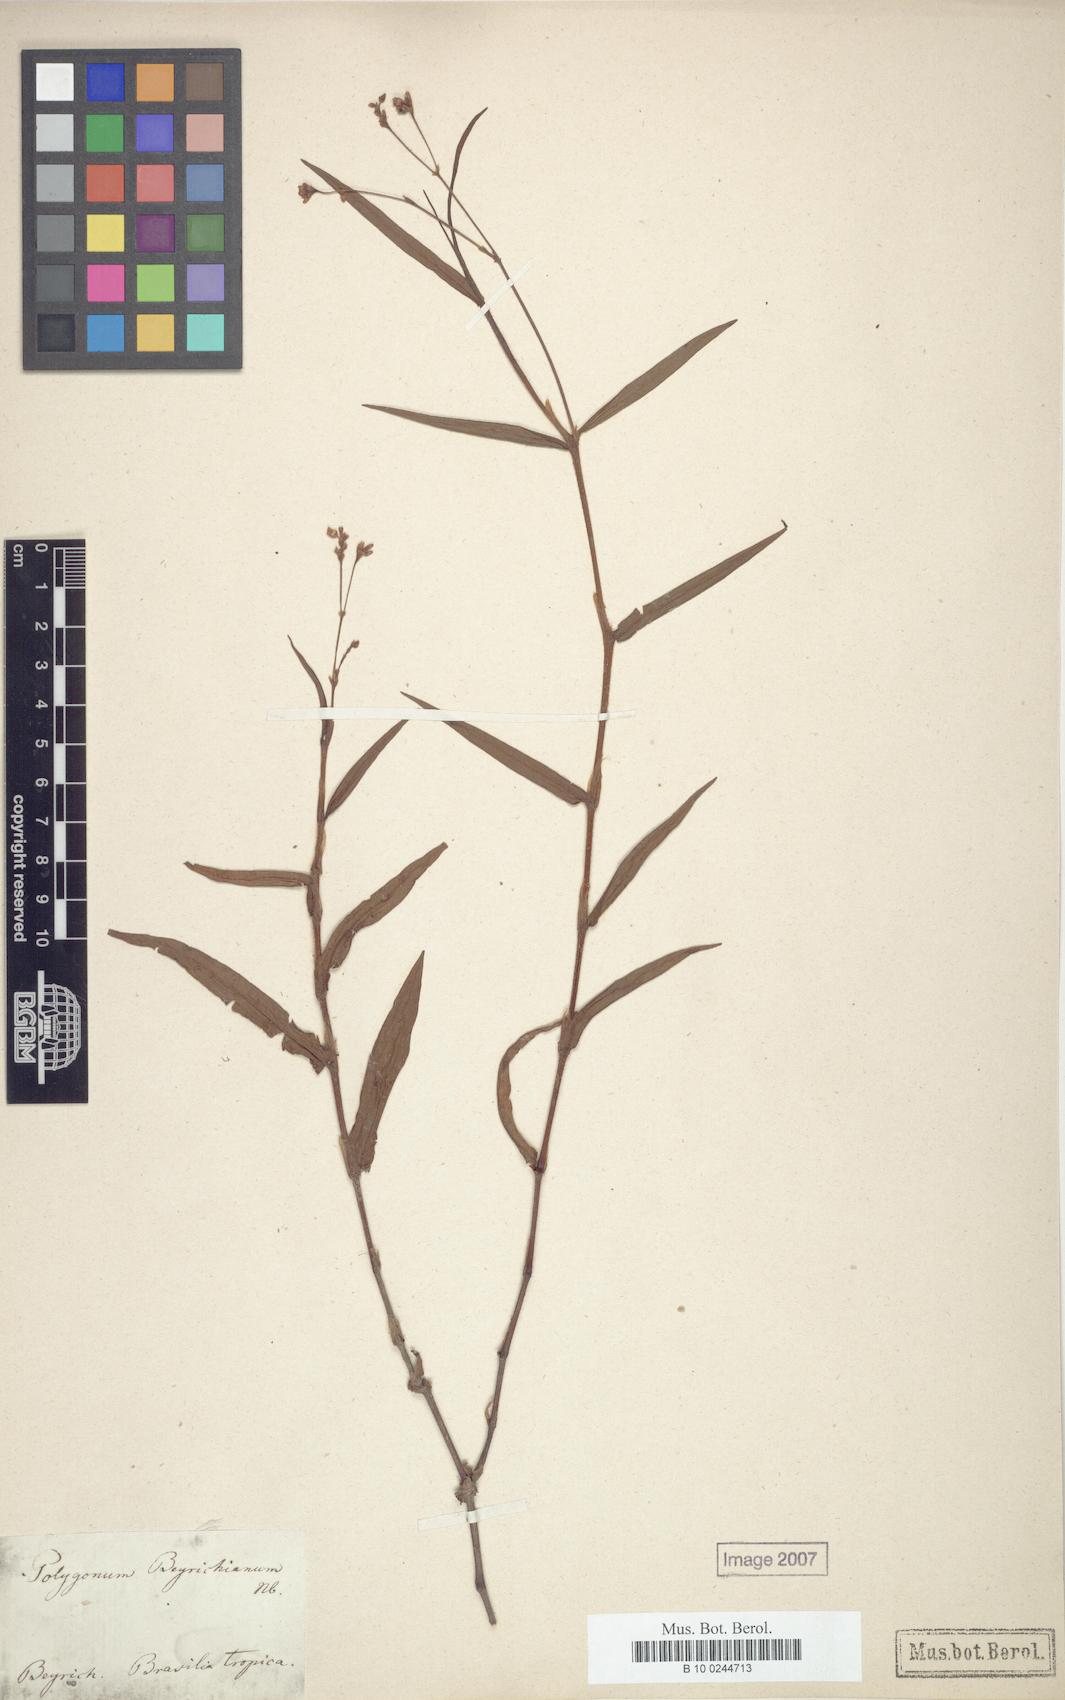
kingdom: Plantae
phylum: Tracheophyta
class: Magnoliopsida
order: Caryophyllales
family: Polygonaceae
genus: Persicaria
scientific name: Persicaria meisneriana
